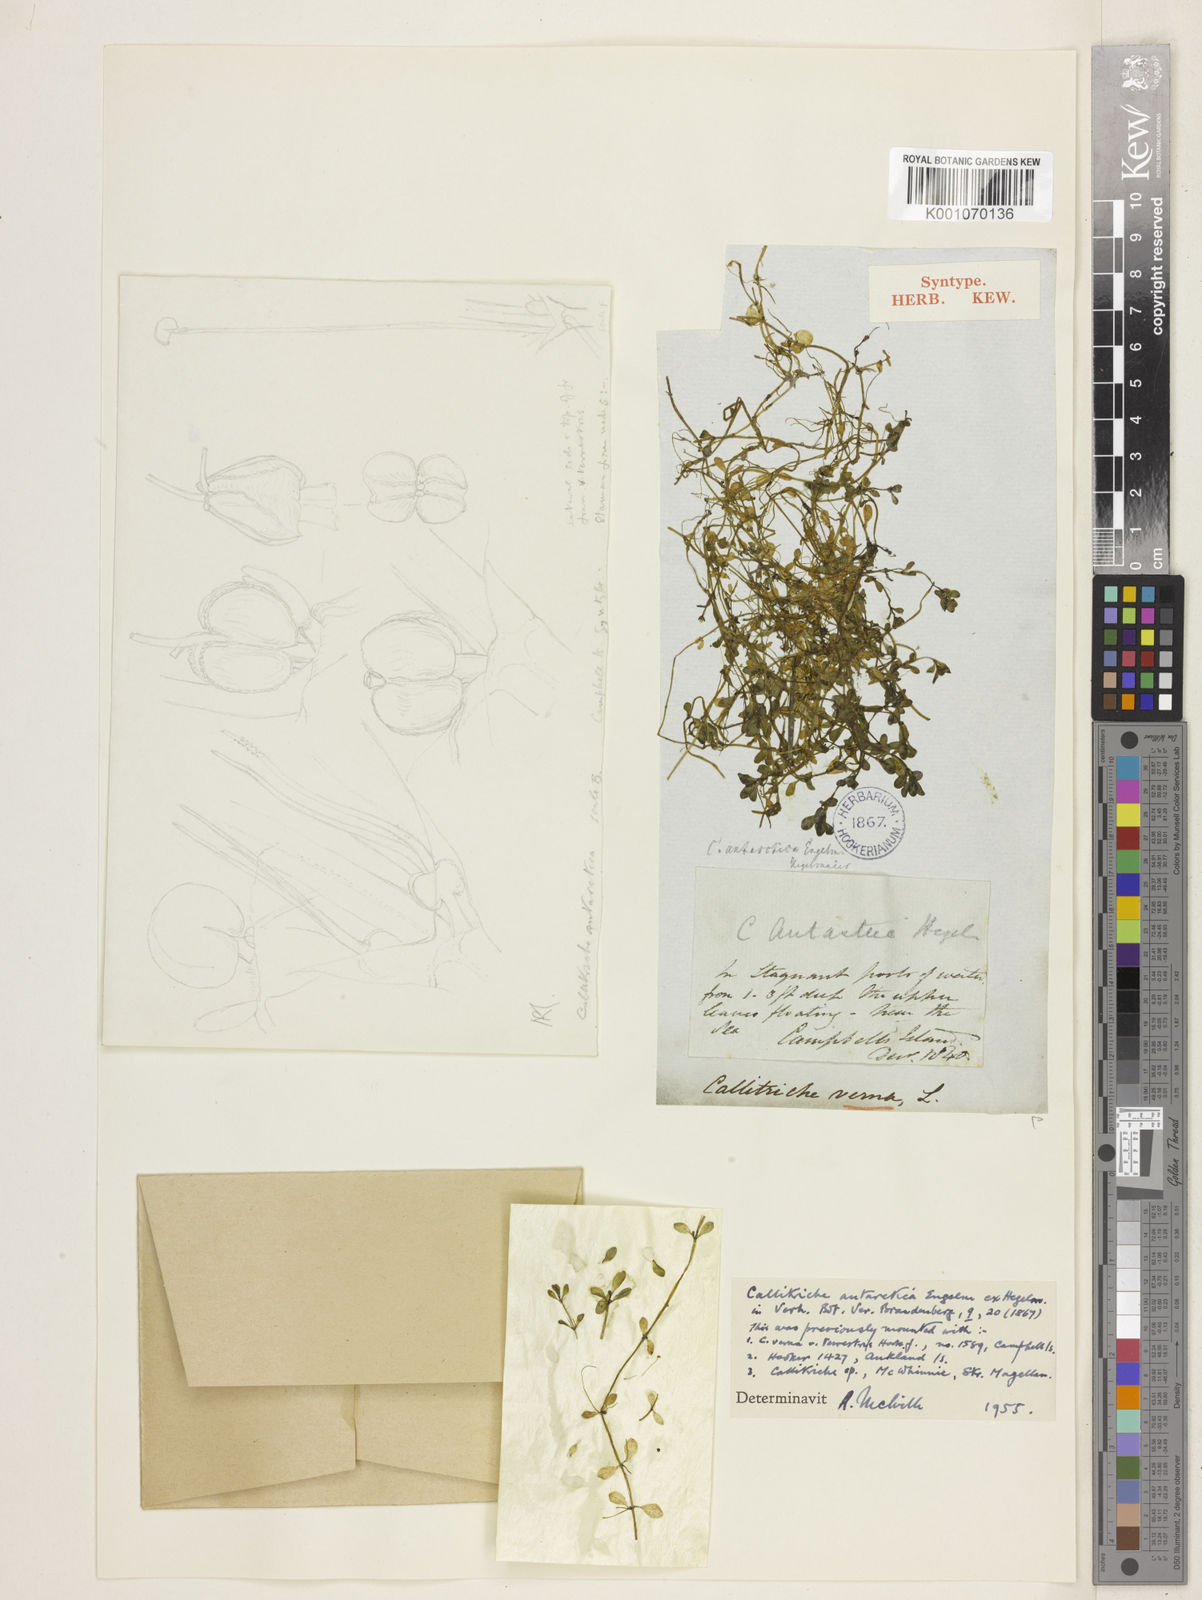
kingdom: Plantae
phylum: Tracheophyta
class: Magnoliopsida
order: Lamiales
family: Plantaginaceae
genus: Callitriche
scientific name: Callitriche antarctica
